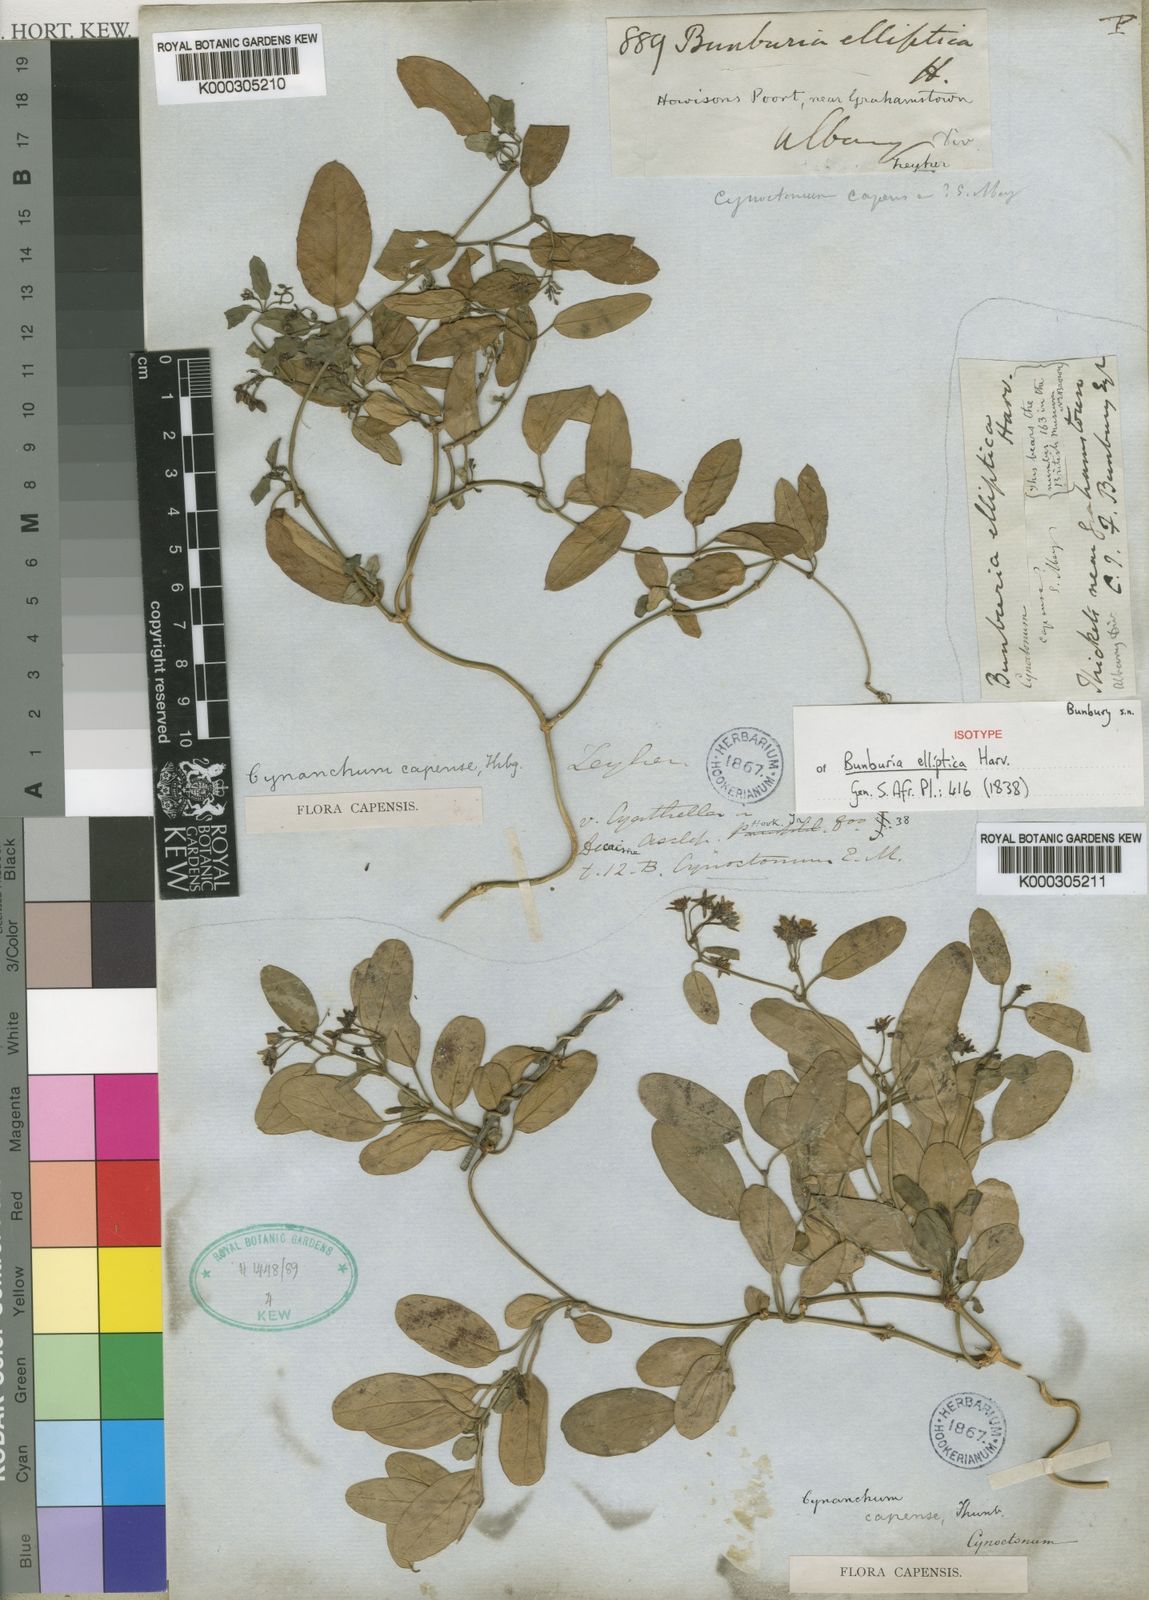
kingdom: Plantae
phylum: Tracheophyta
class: Magnoliopsida
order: Gentianales
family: Apocynaceae
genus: Cynanchum
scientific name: Cynanchum ellipticum
